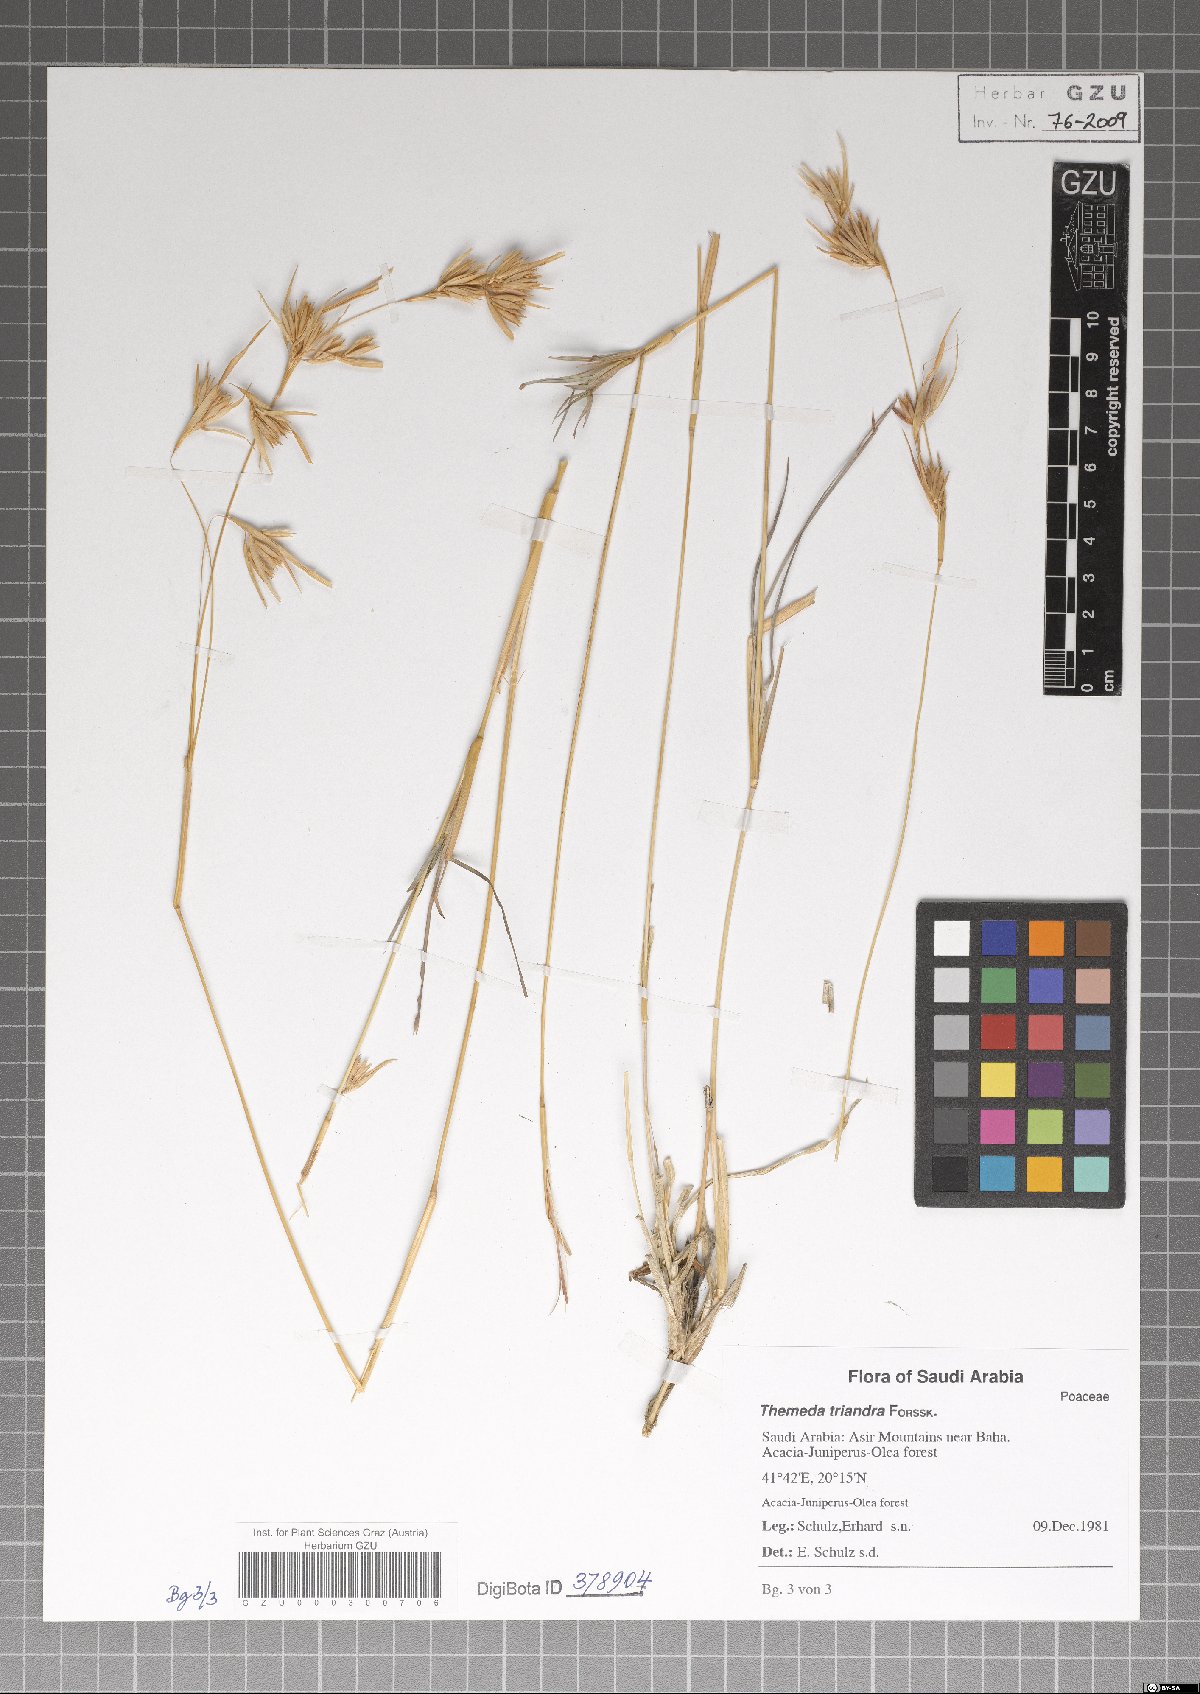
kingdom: Plantae
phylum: Tracheophyta
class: Liliopsida
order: Poales
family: Poaceae
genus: Themeda
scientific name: Themeda triandra
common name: Kangaroo grass
